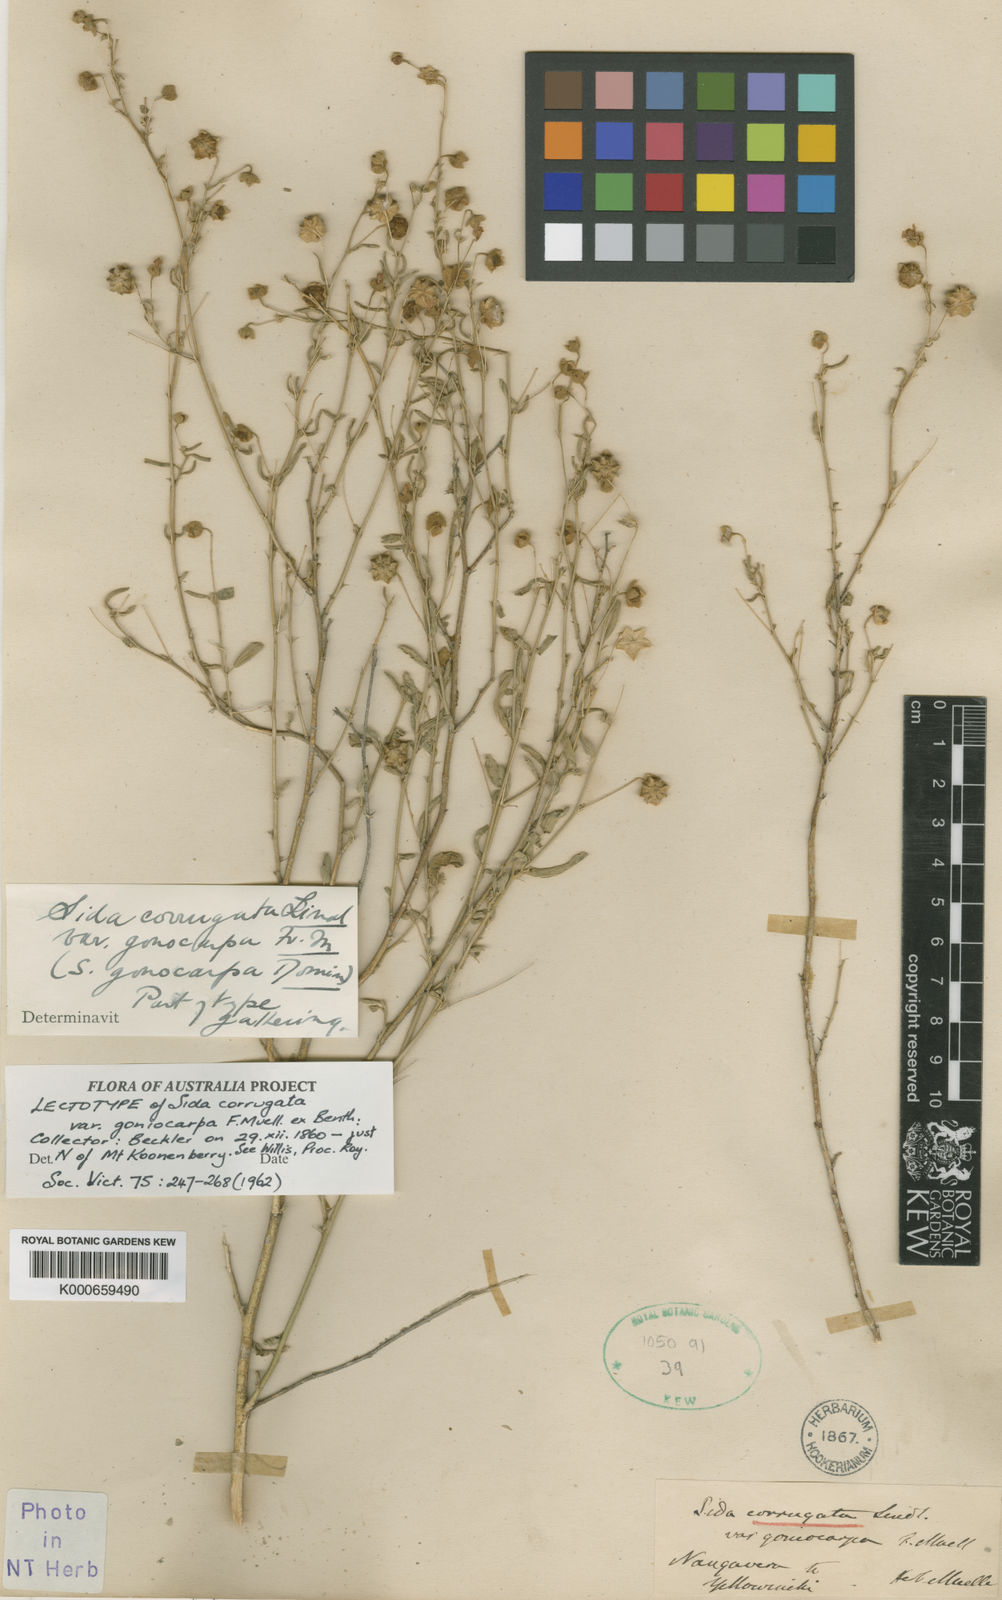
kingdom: Plantae
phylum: Tracheophyta
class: Magnoliopsida
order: Malvales
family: Malvaceae
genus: Sida
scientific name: Sida corrugata
